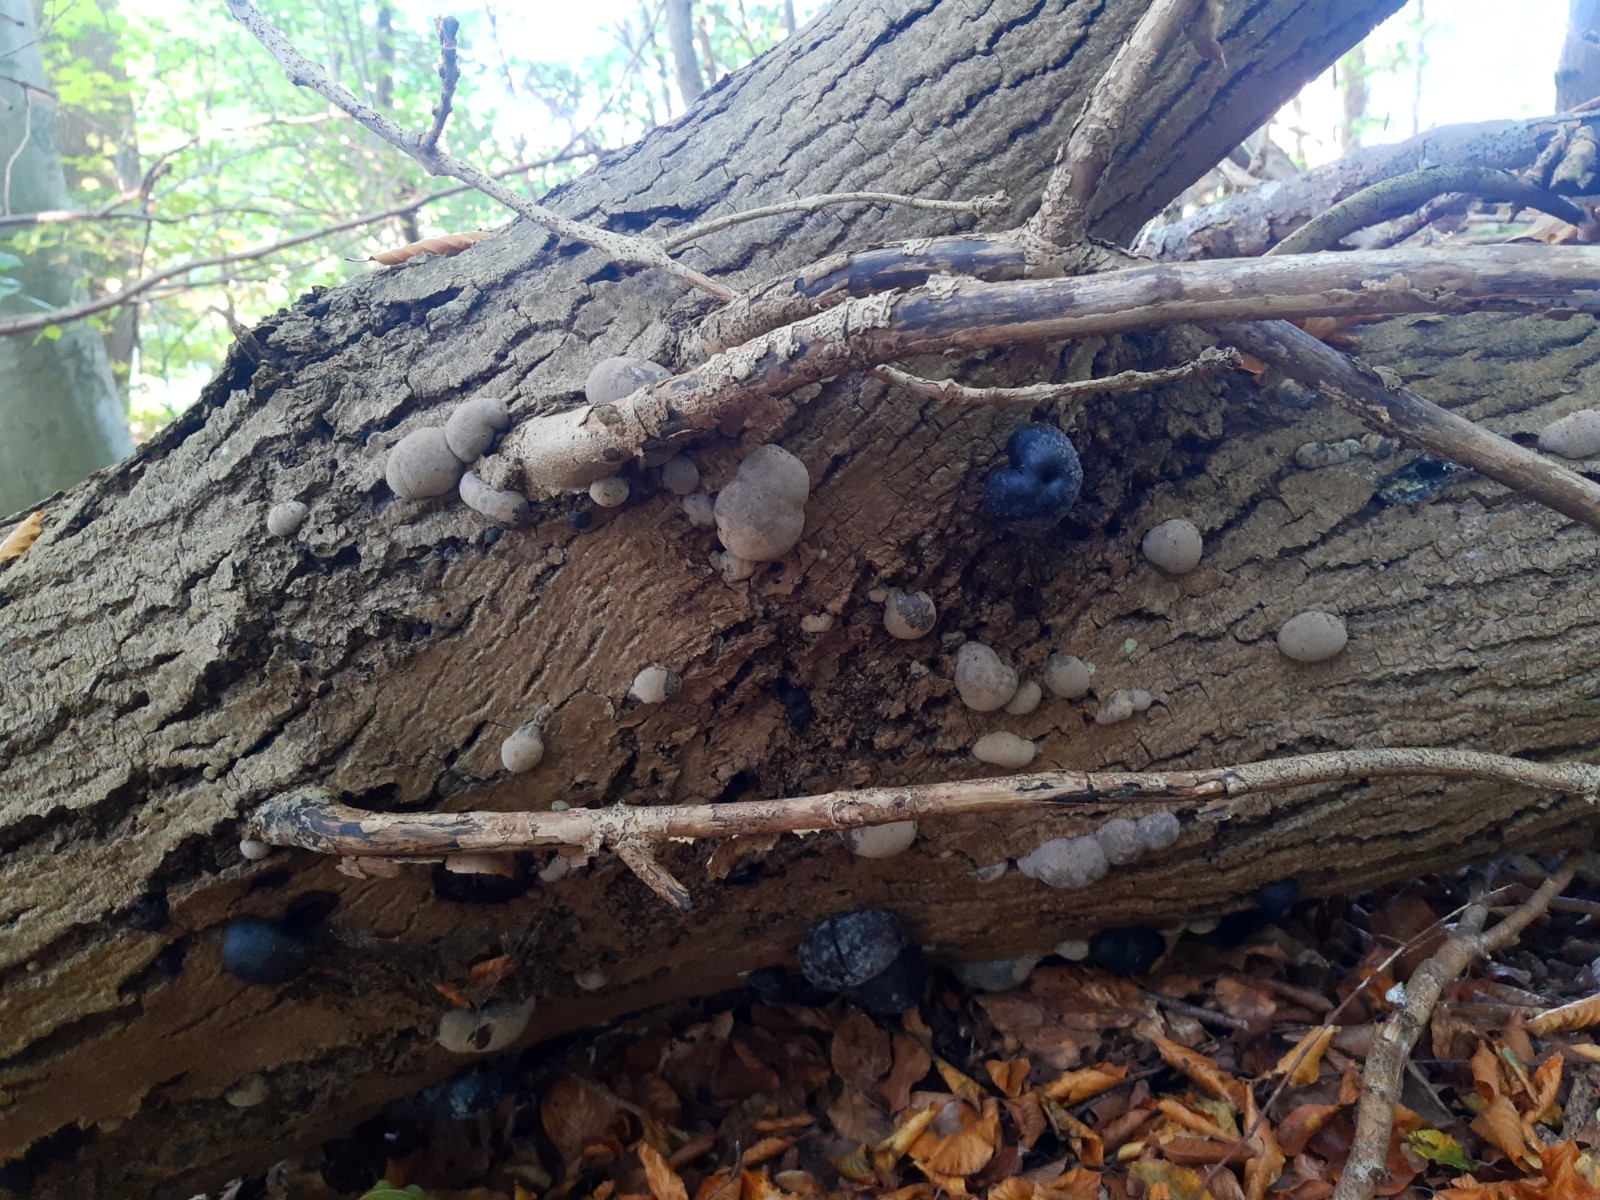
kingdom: Fungi
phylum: Ascomycota
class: Sordariomycetes
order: Xylariales
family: Hypoxylaceae
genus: Daldinia
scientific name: Daldinia concentrica
